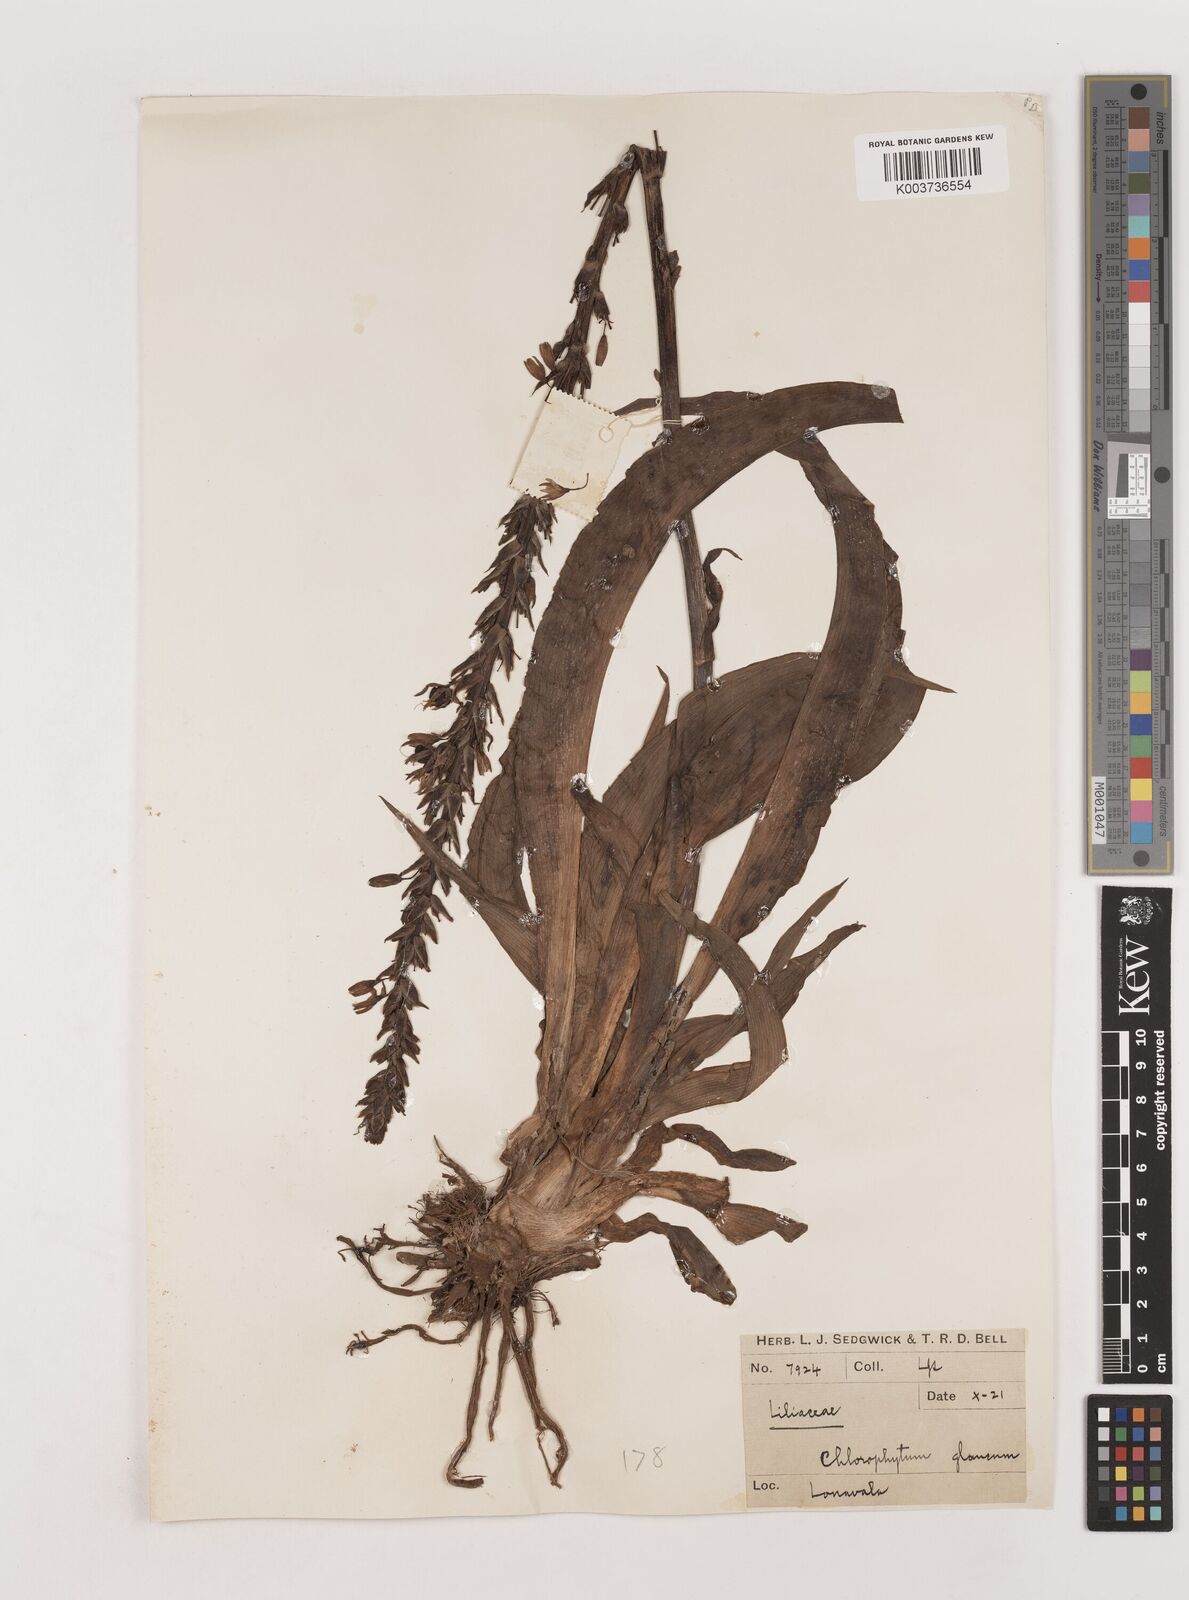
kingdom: Plantae
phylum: Tracheophyta
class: Liliopsida
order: Asparagales
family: Asparagaceae
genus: Chlorophytum
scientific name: Chlorophytum glaucum
